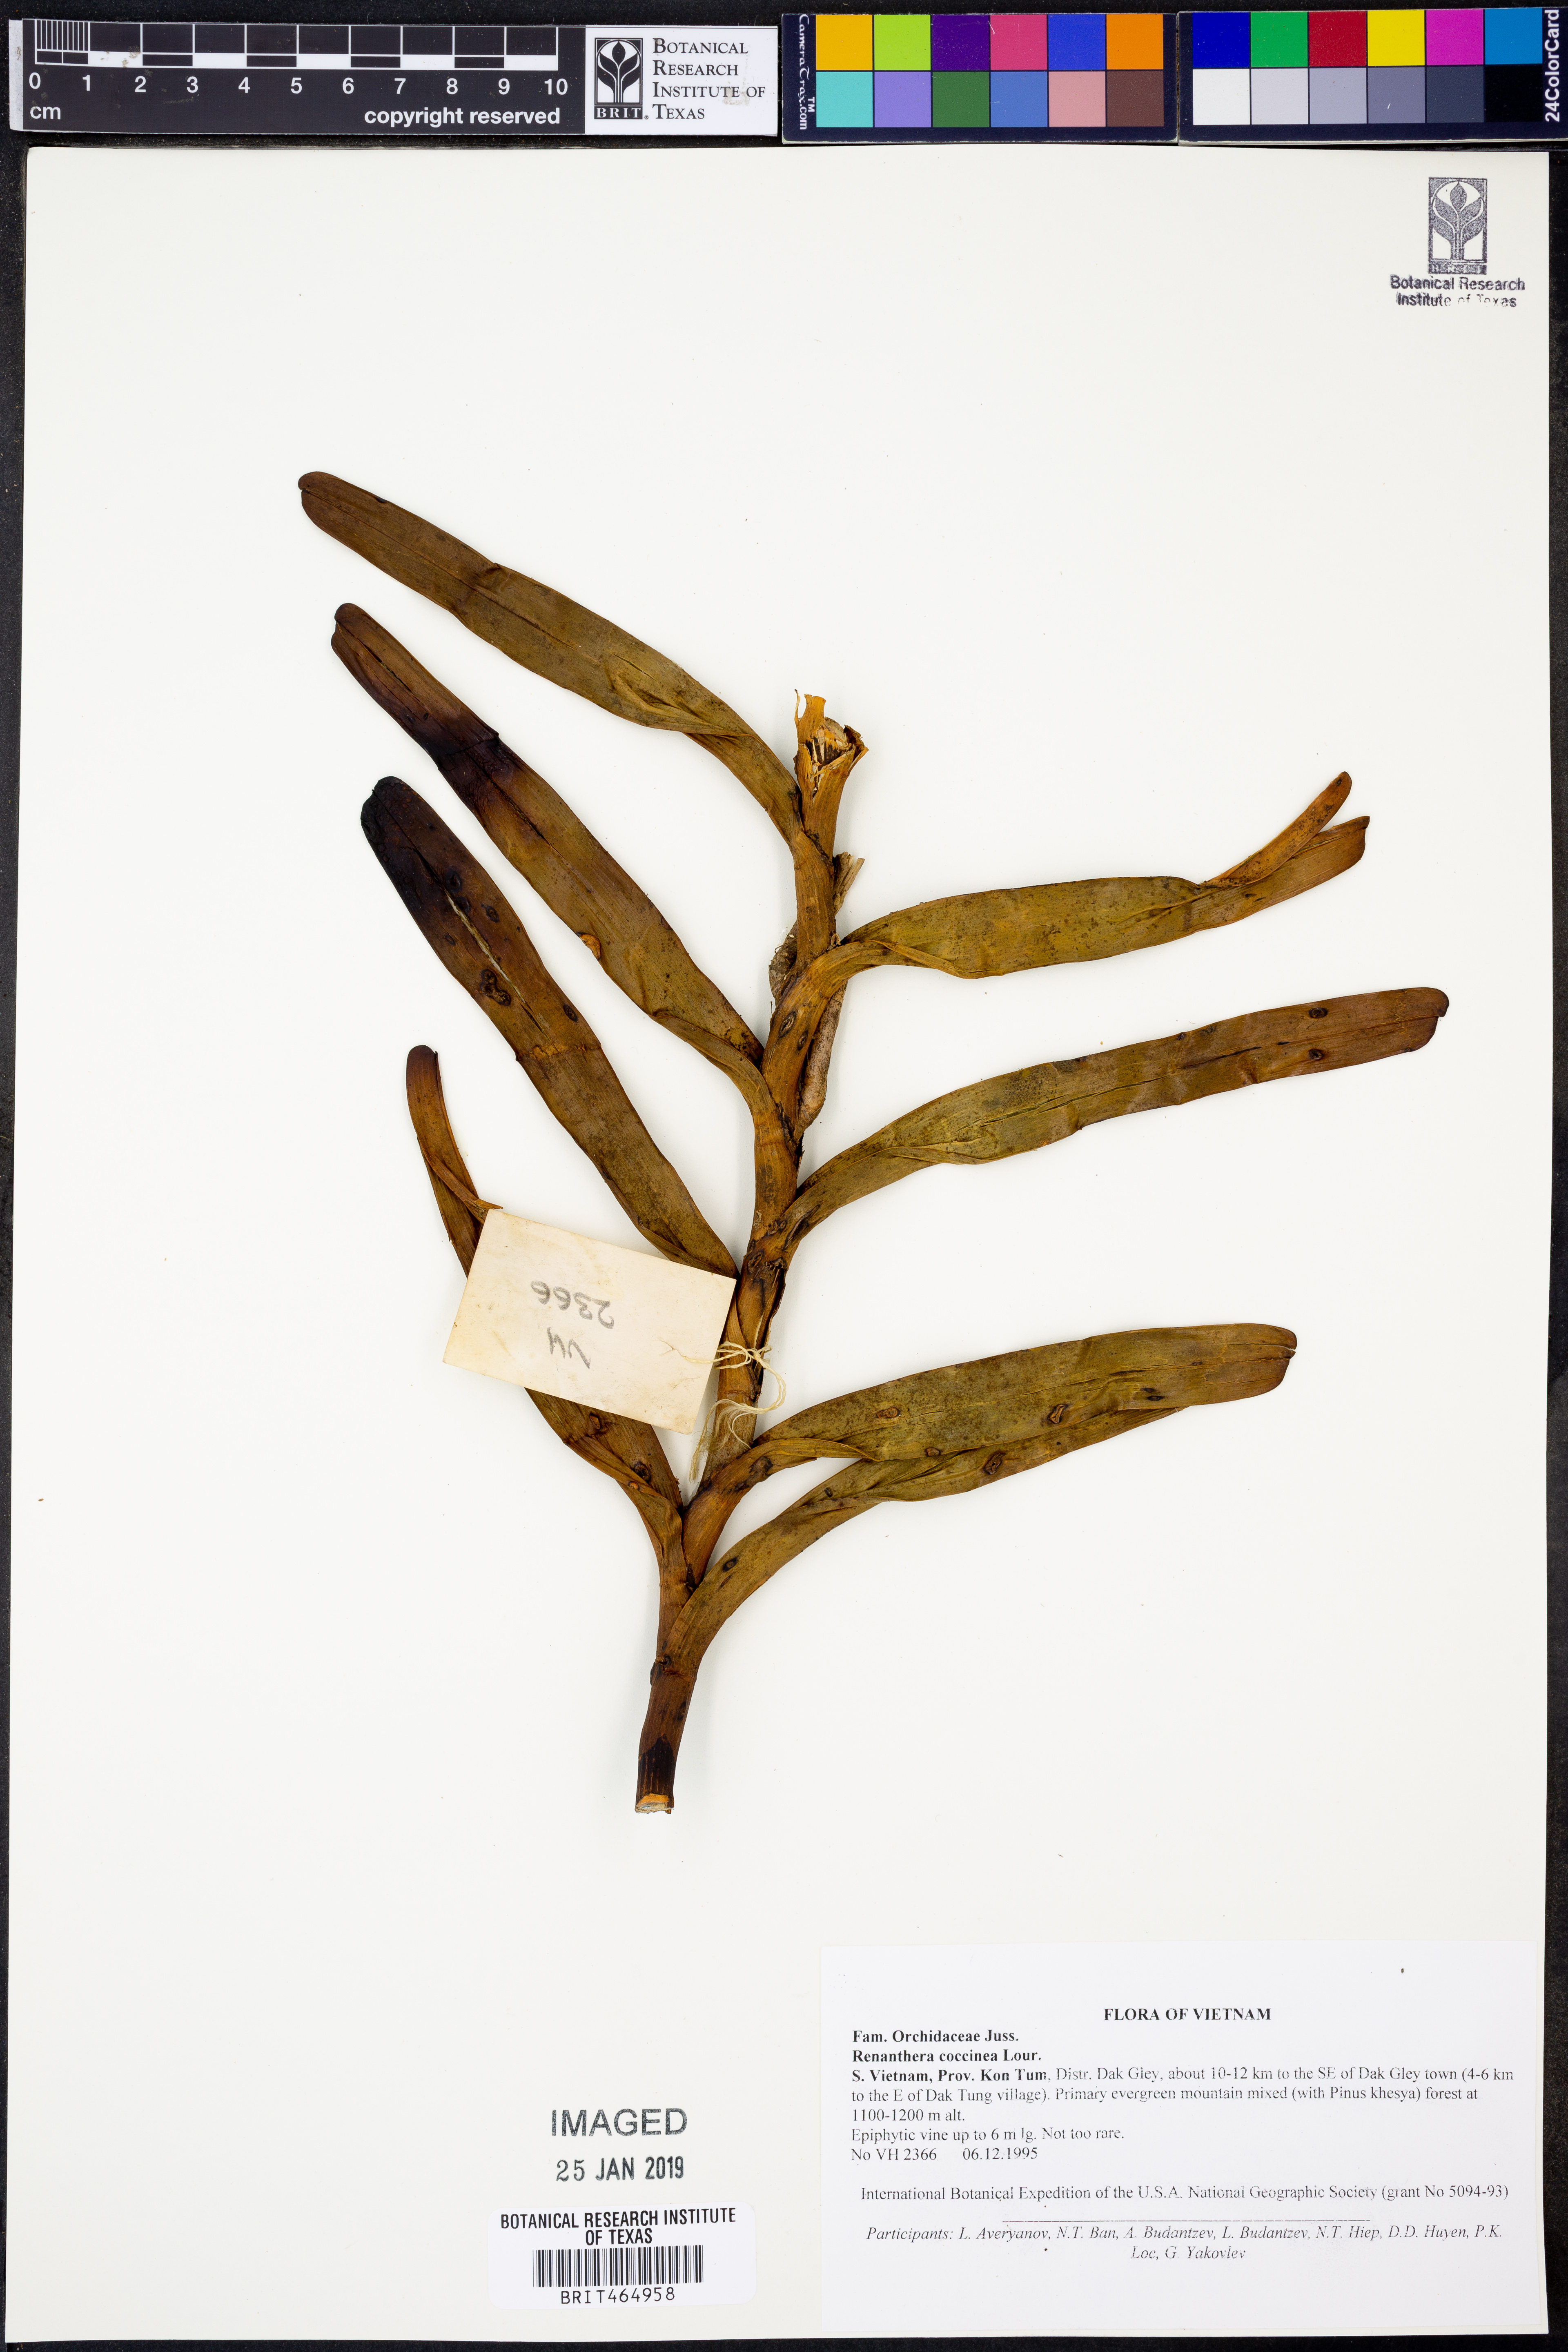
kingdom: Plantae
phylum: Tracheophyta
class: Liliopsida
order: Asparagales
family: Orchidaceae
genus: Renanthera
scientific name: Renanthera coccinea
